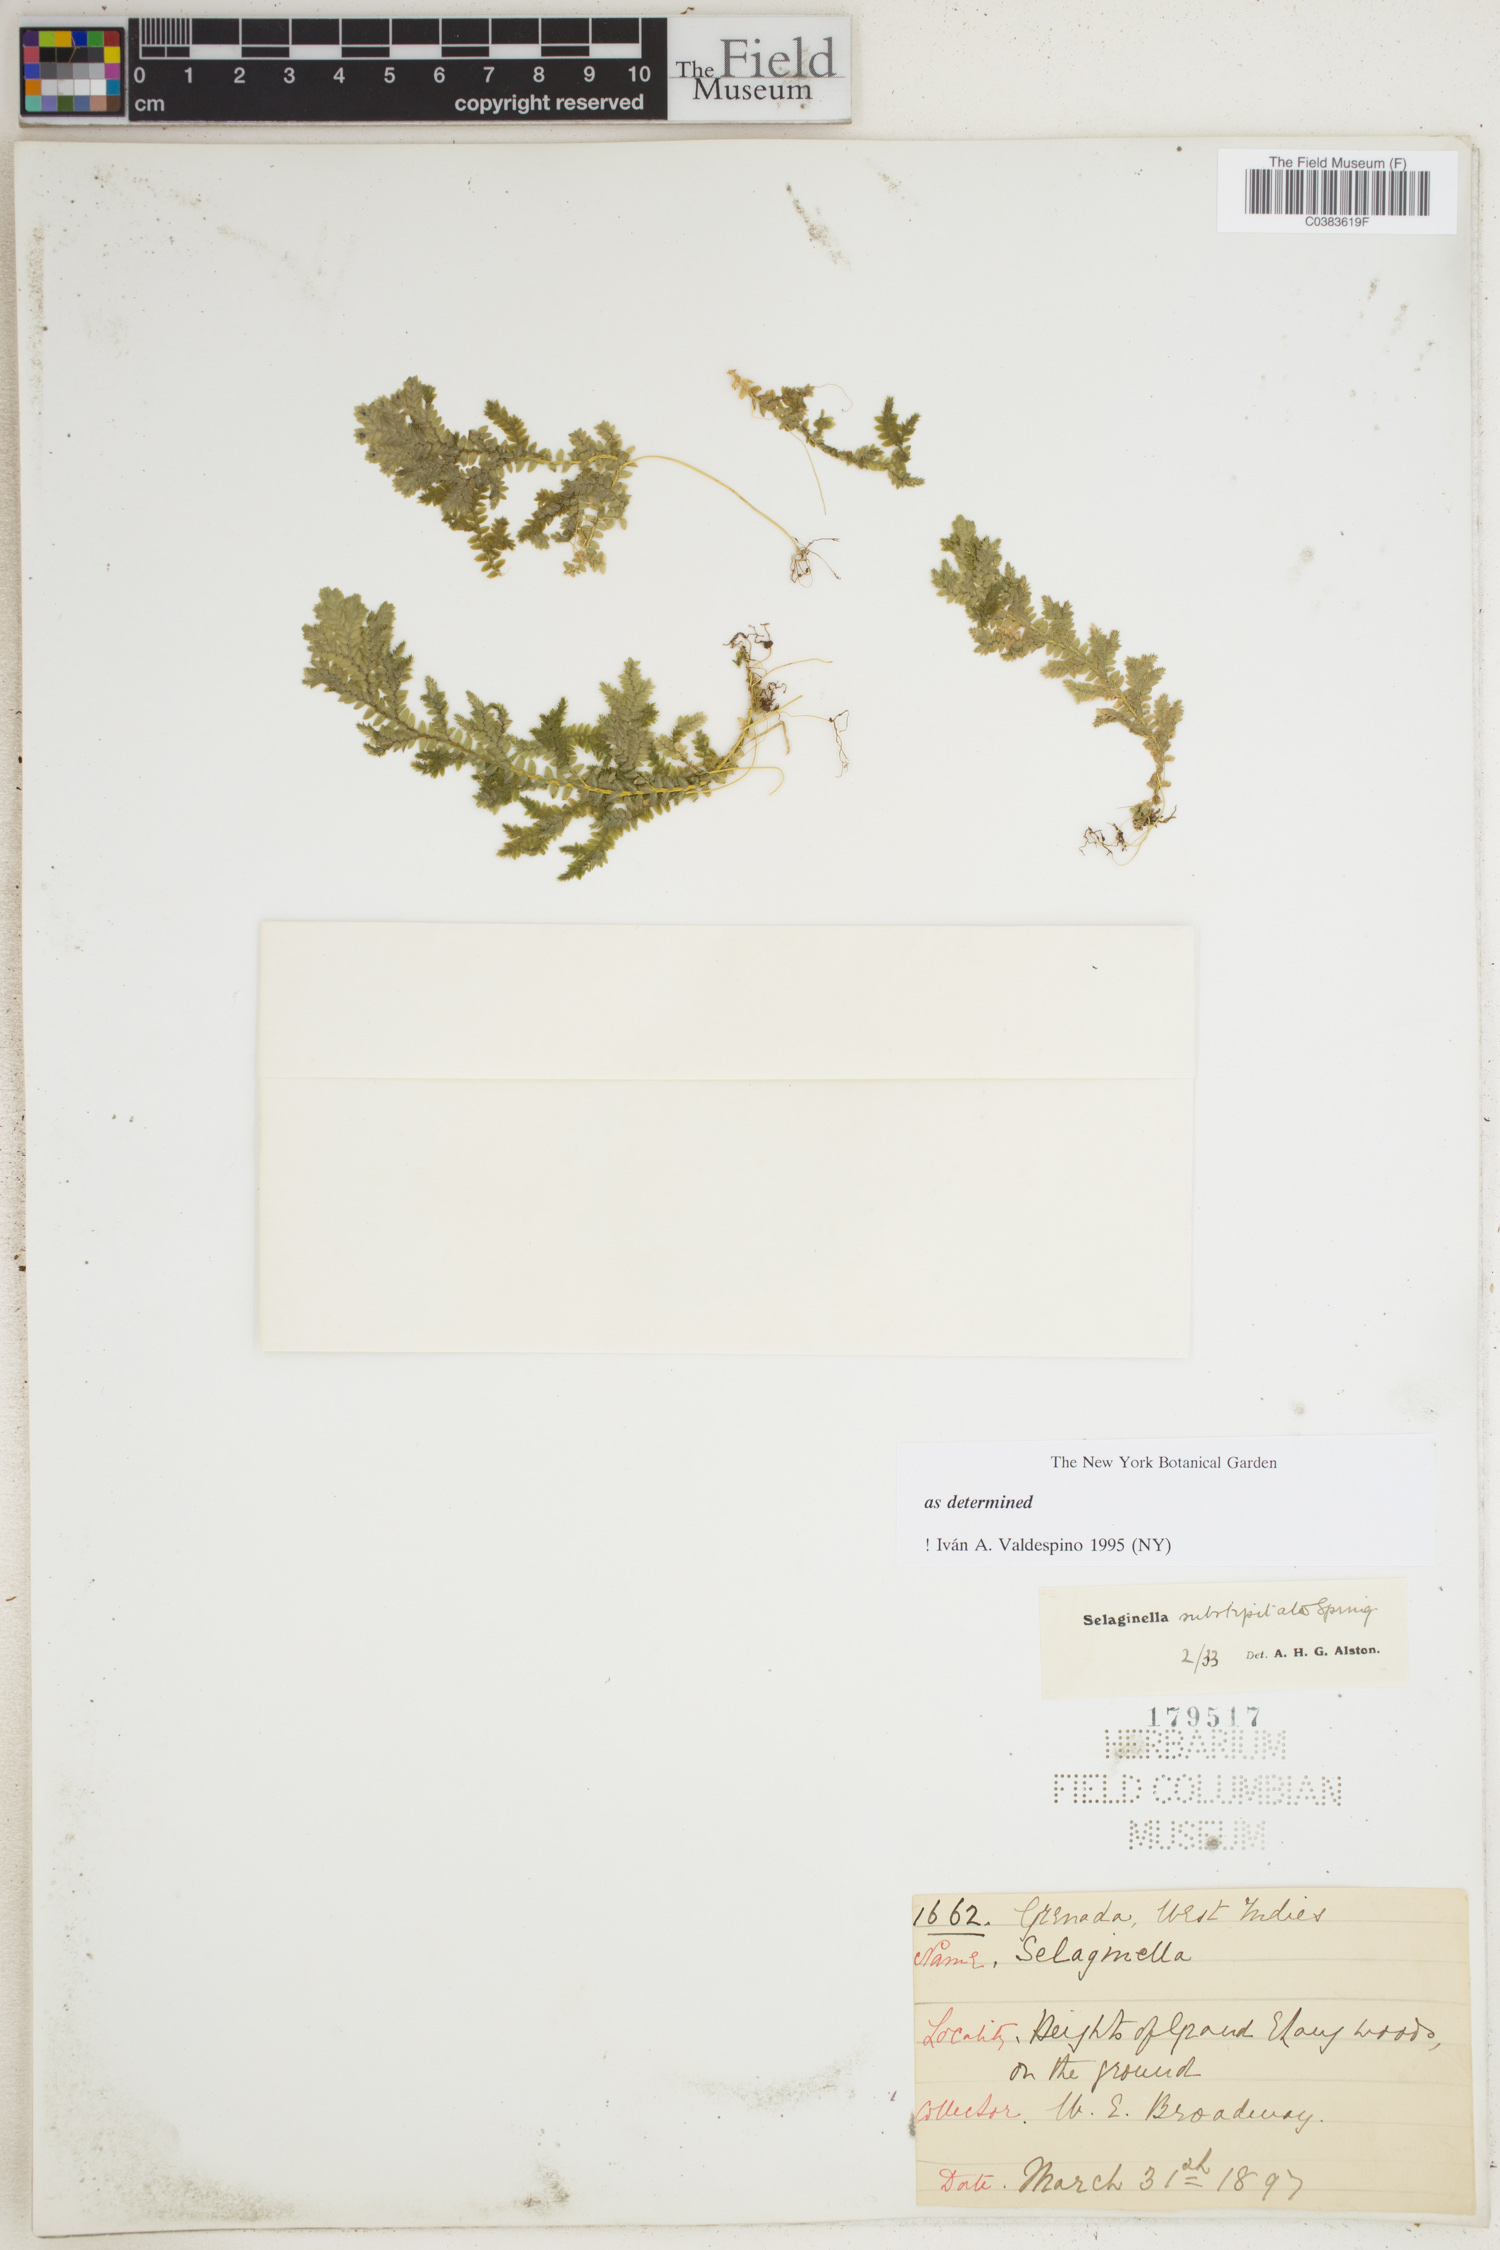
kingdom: Plantae
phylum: Tracheophyta
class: Lycopodiopsida
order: Selaginellales
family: Selaginellaceae
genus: Selaginella
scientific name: Selaginella substipitata
